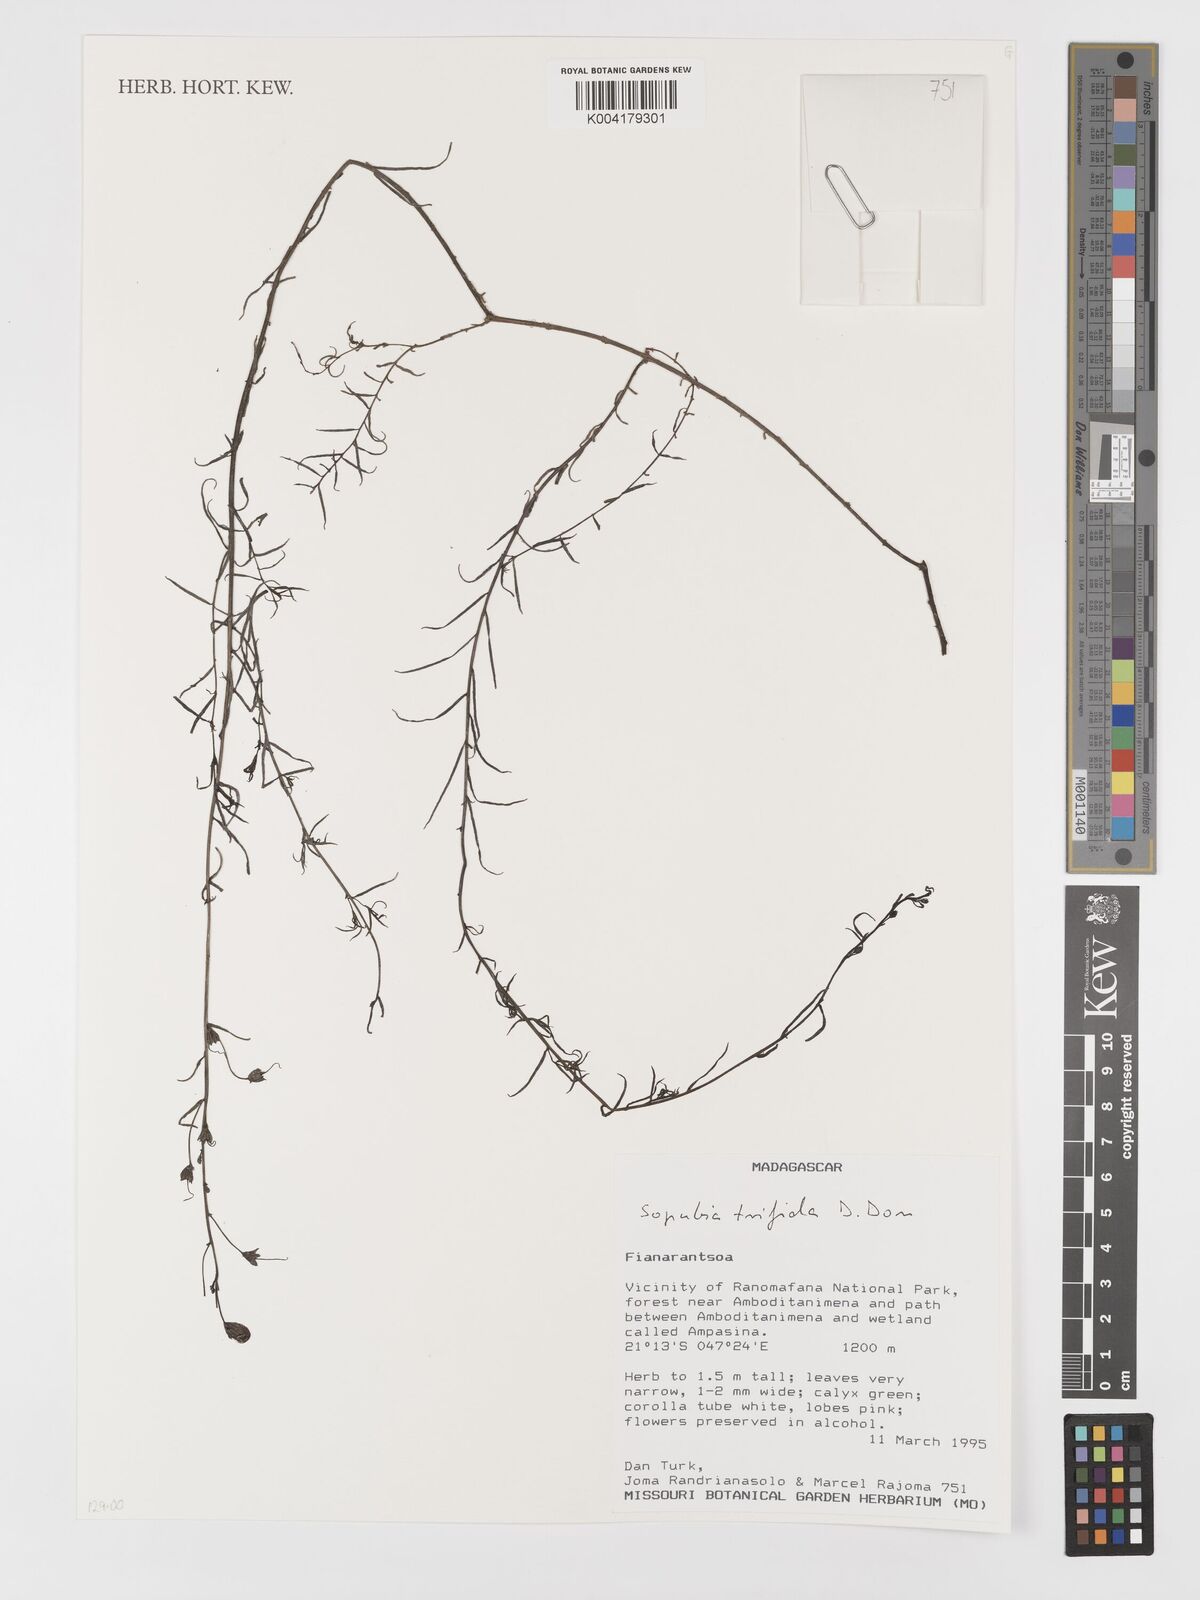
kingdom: Plantae
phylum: Tracheophyta
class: Magnoliopsida
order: Lamiales
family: Orobanchaceae
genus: Sopubia
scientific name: Sopubia trifida
